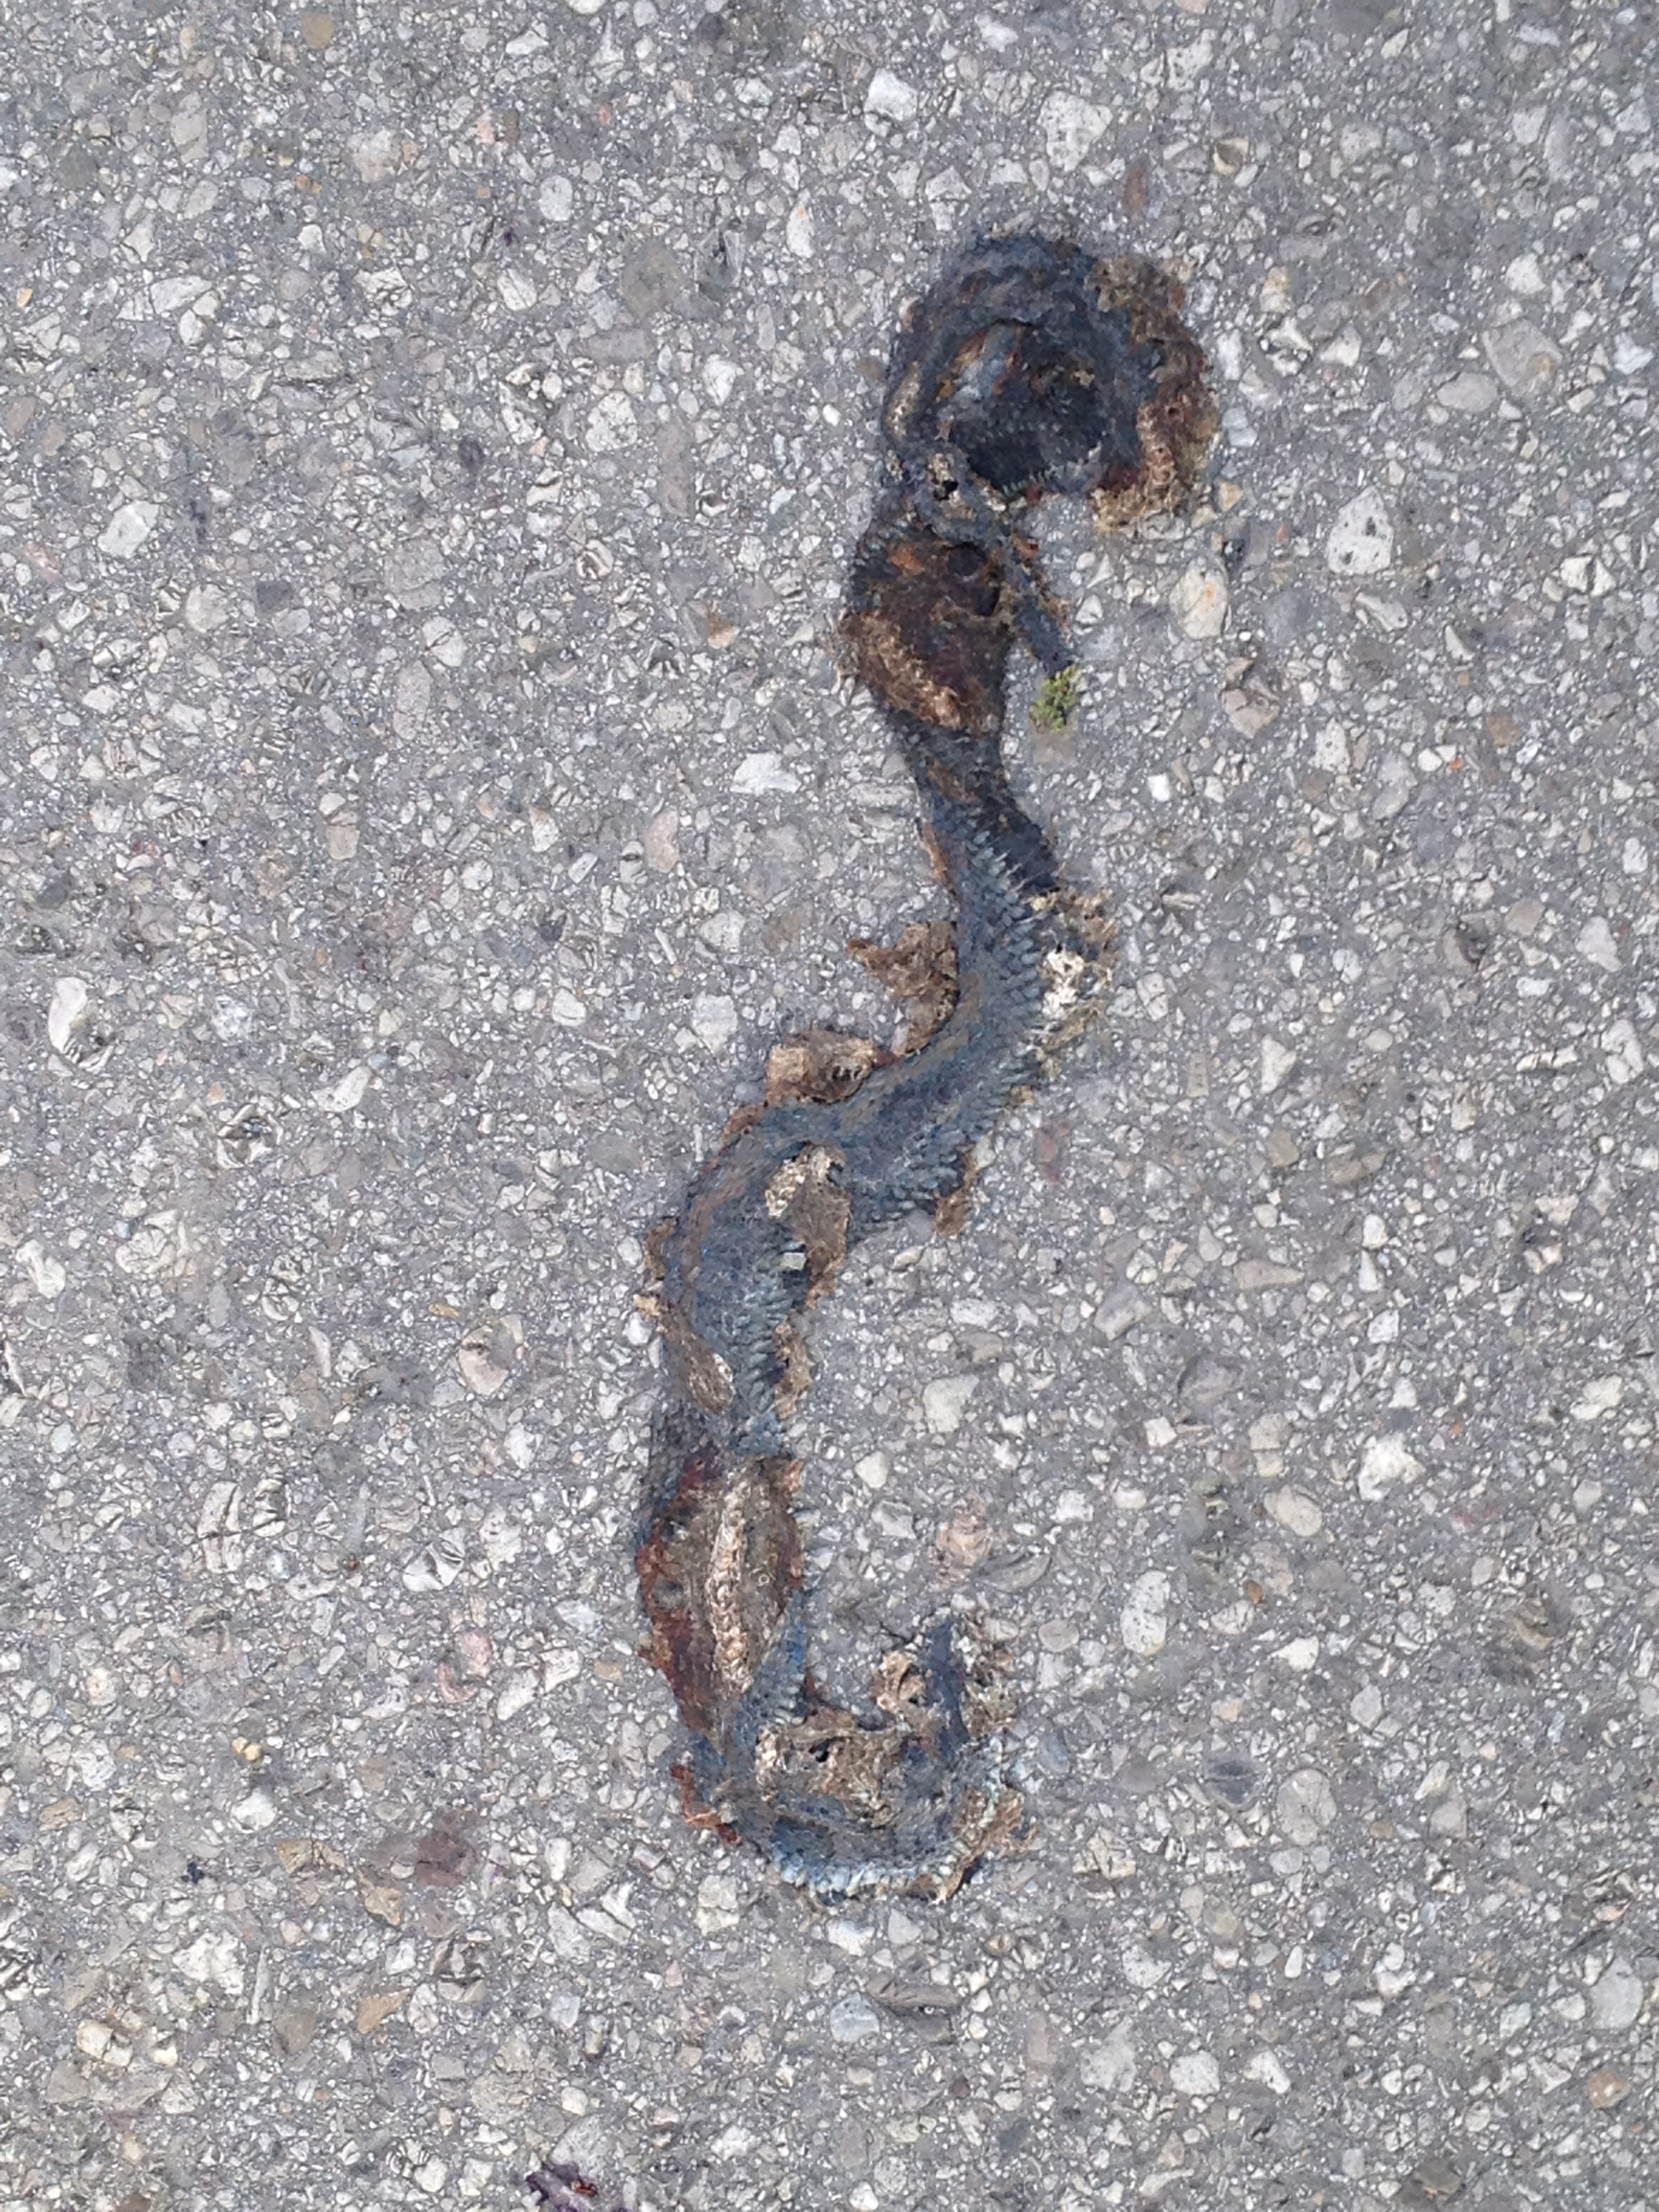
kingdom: Animalia
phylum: Chordata
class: Squamata
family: Colubridae
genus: Natrix
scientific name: Natrix natrix
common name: Grass snake
